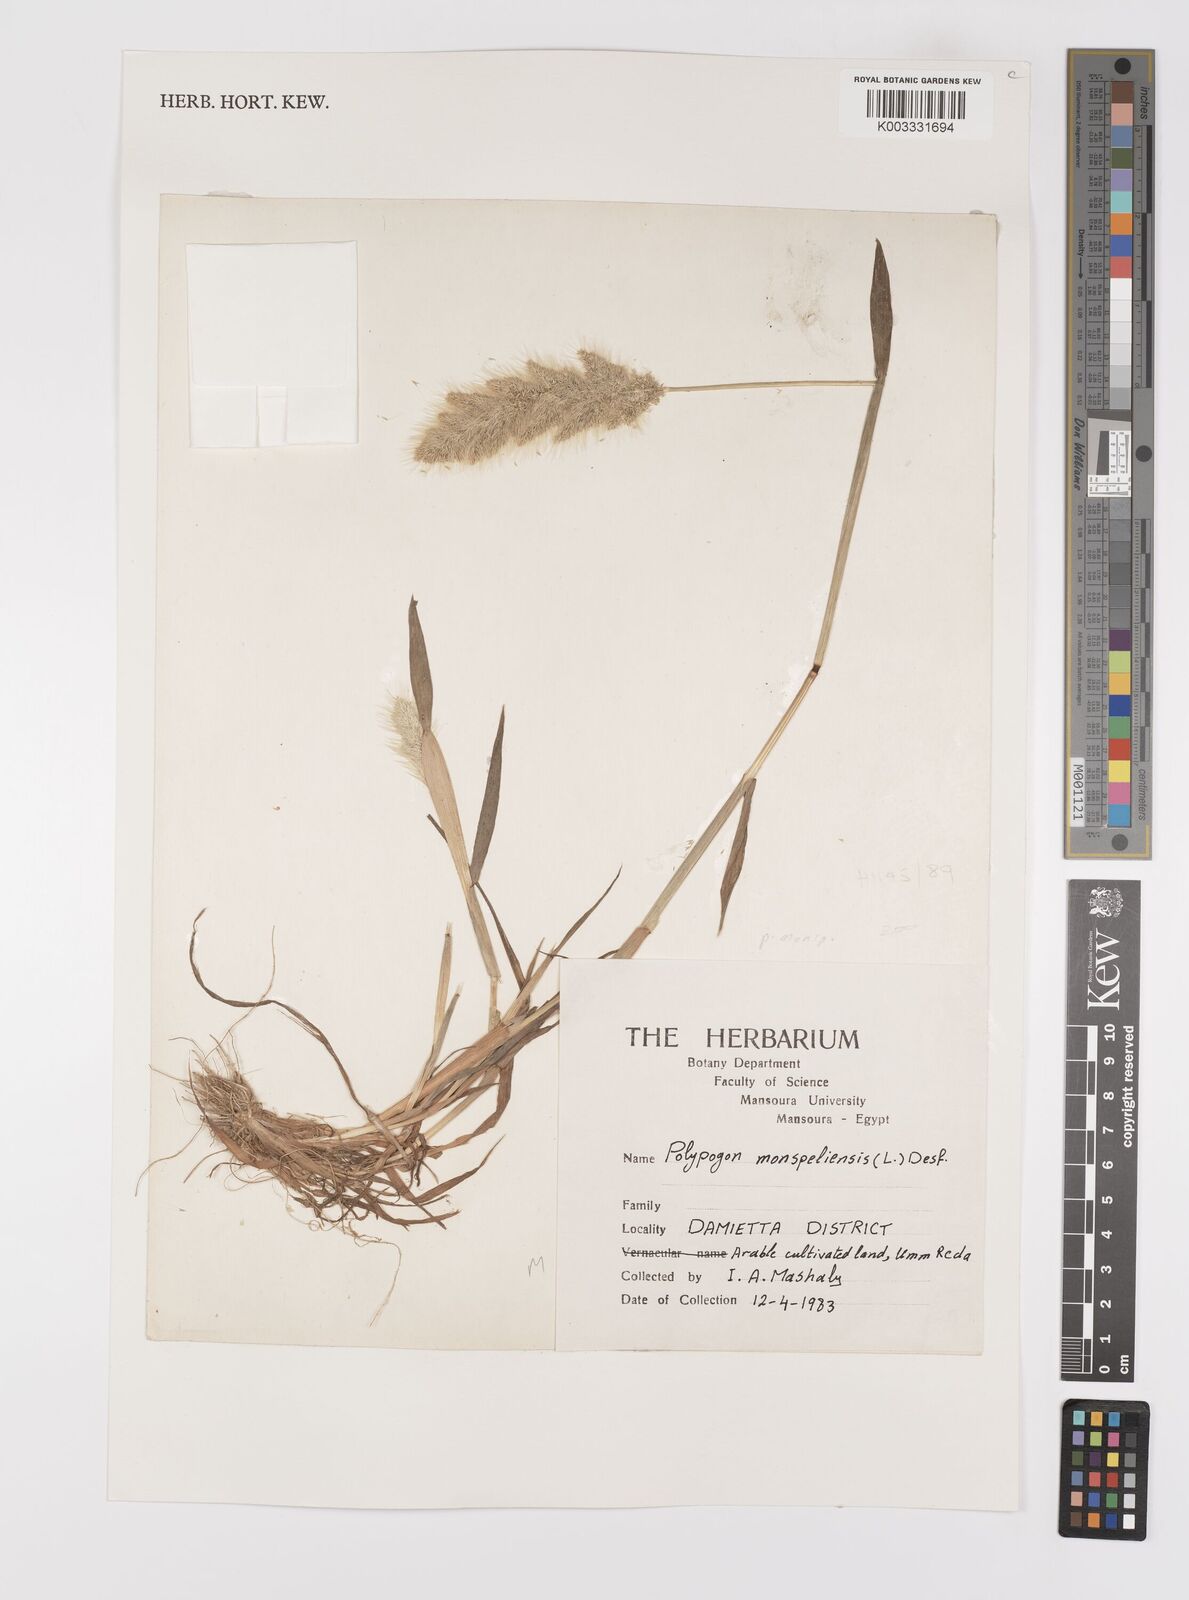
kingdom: Plantae
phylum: Tracheophyta
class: Liliopsida
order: Poales
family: Poaceae
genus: Polypogon
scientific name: Polypogon monspeliensis
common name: Annual rabbitsfoot grass
